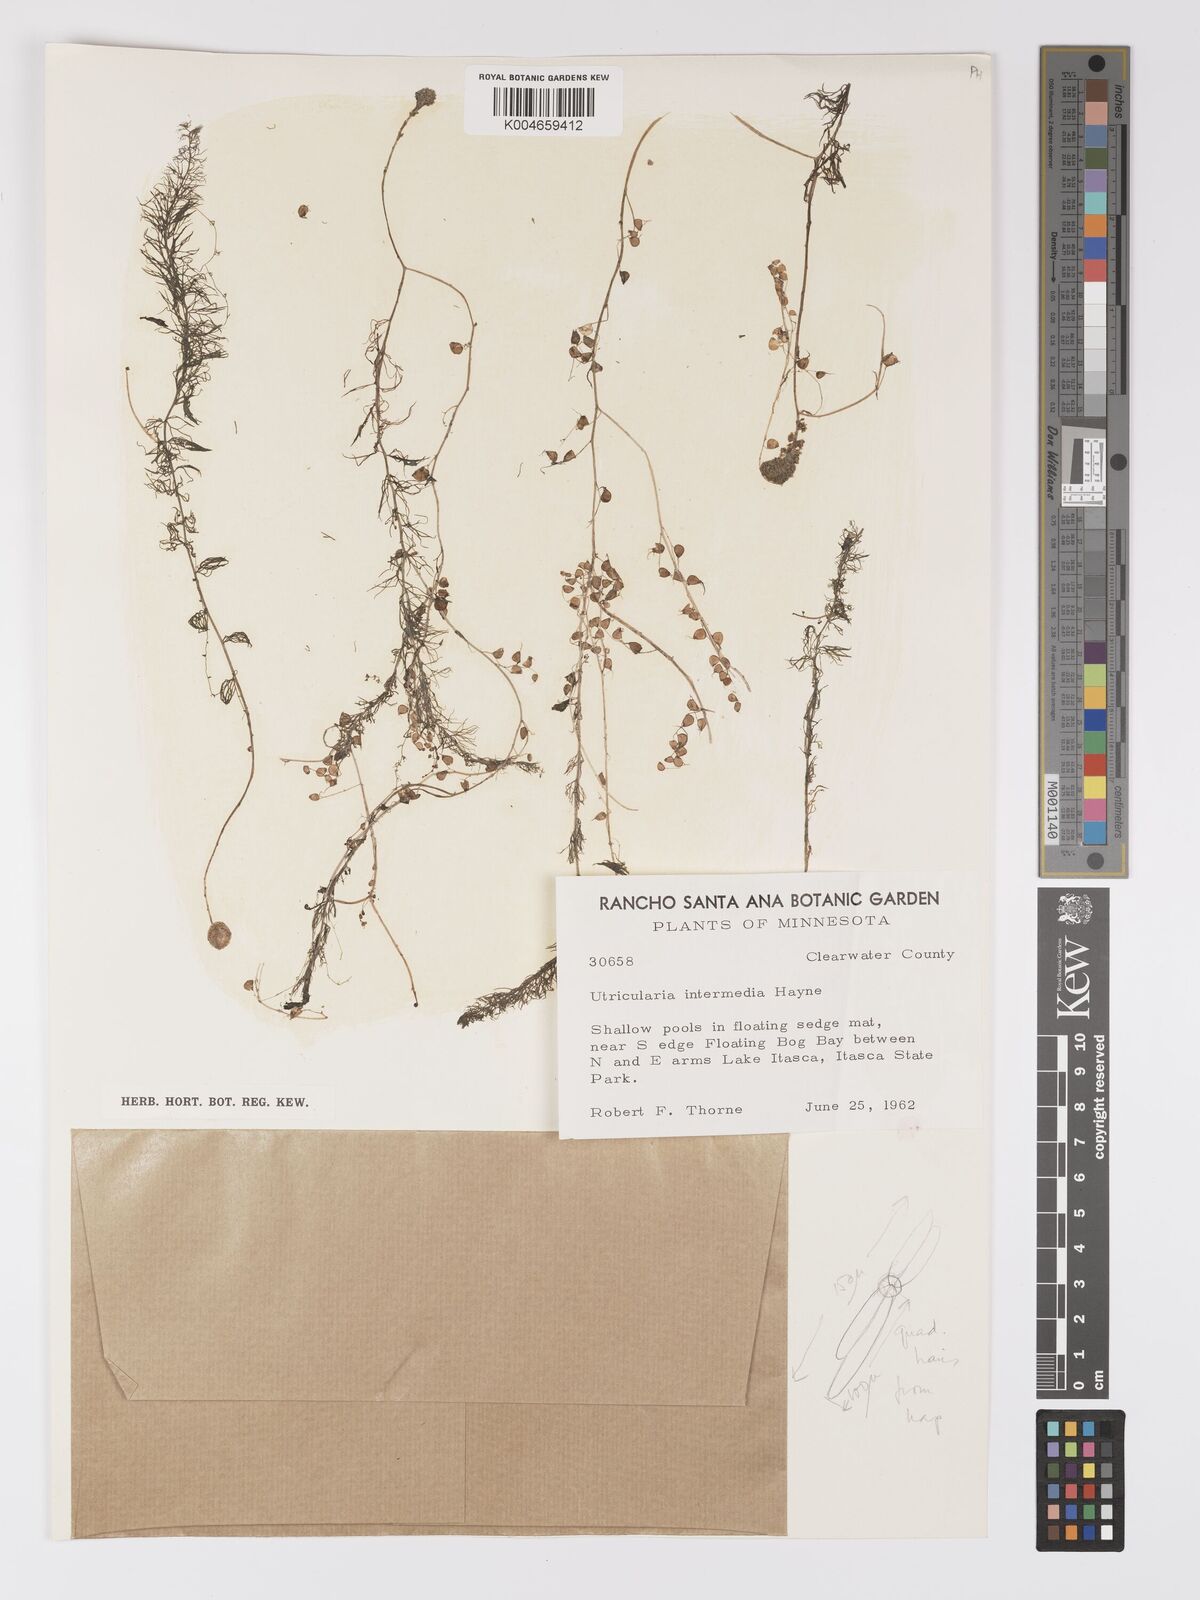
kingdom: Plantae
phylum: Tracheophyta
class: Magnoliopsida
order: Lamiales
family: Lentibulariaceae
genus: Utricularia
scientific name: Utricularia intermedia
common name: Intermediate bladderwort
